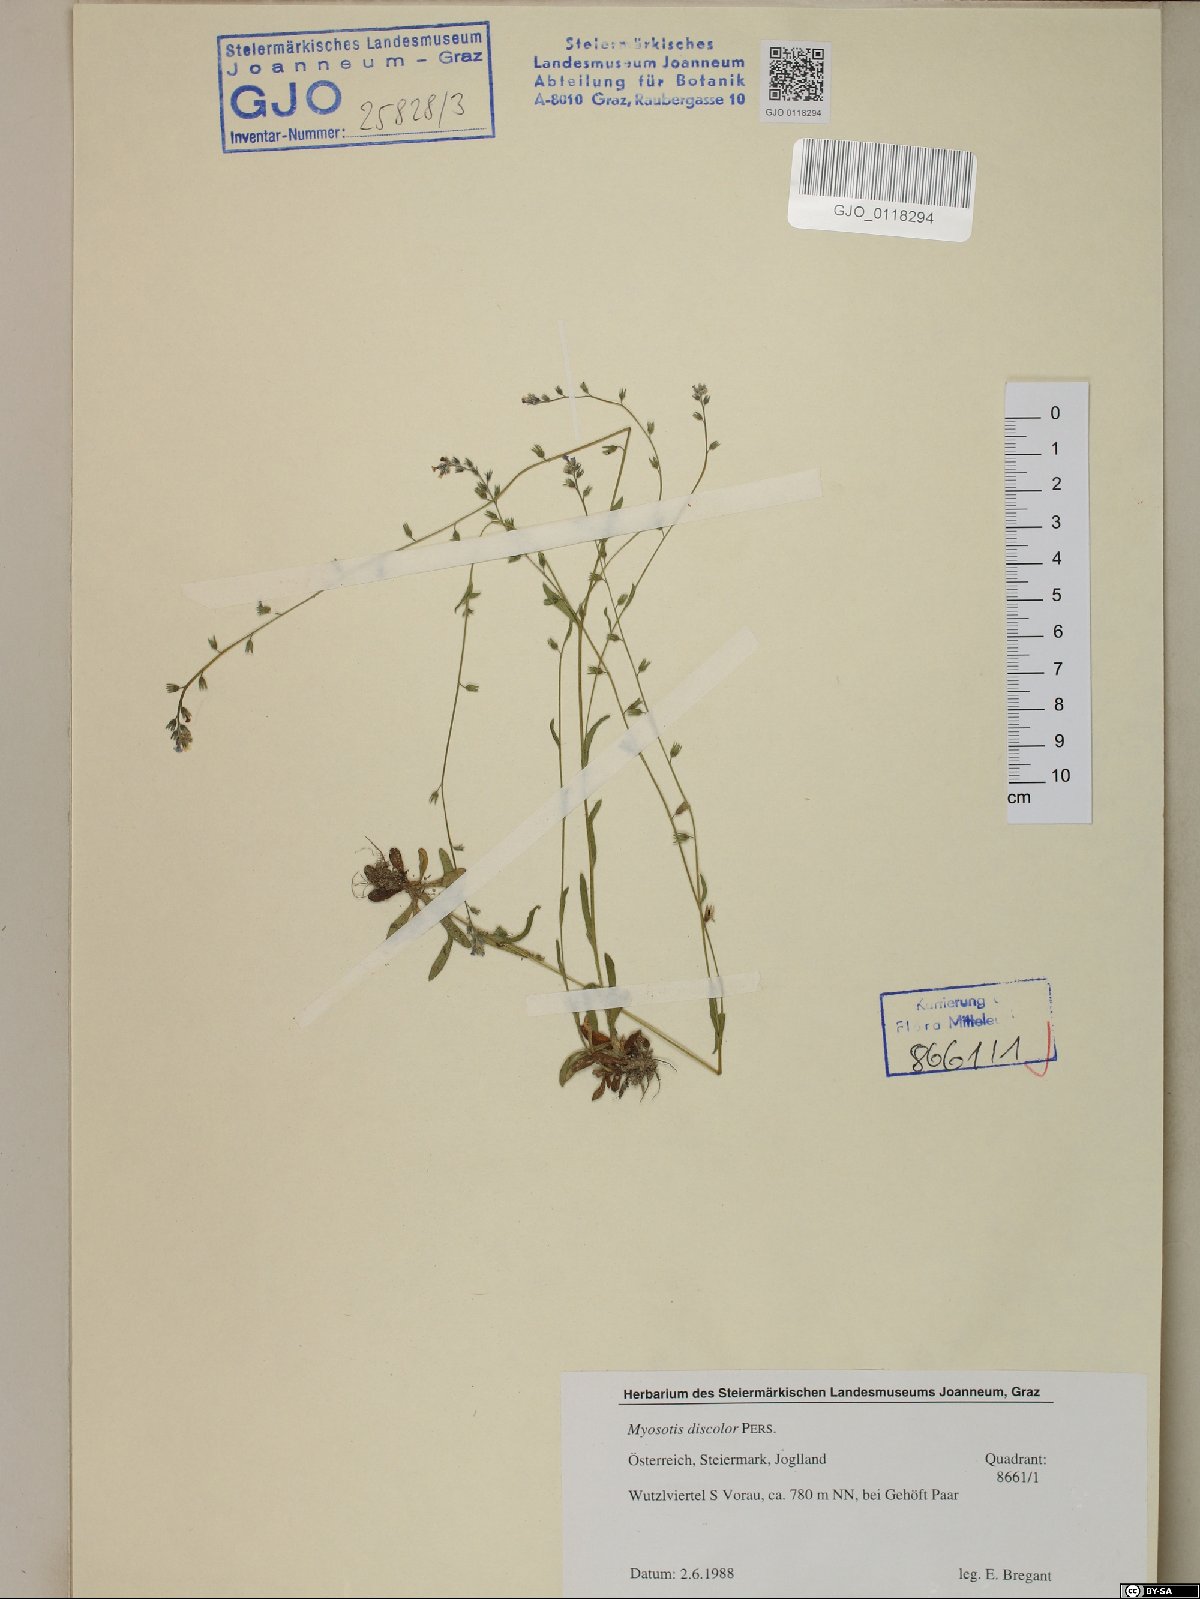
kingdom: Plantae
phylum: Tracheophyta
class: Magnoliopsida
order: Boraginales
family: Boraginaceae
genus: Myosotis
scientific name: Myosotis discolor
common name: Changing forget-me-not
